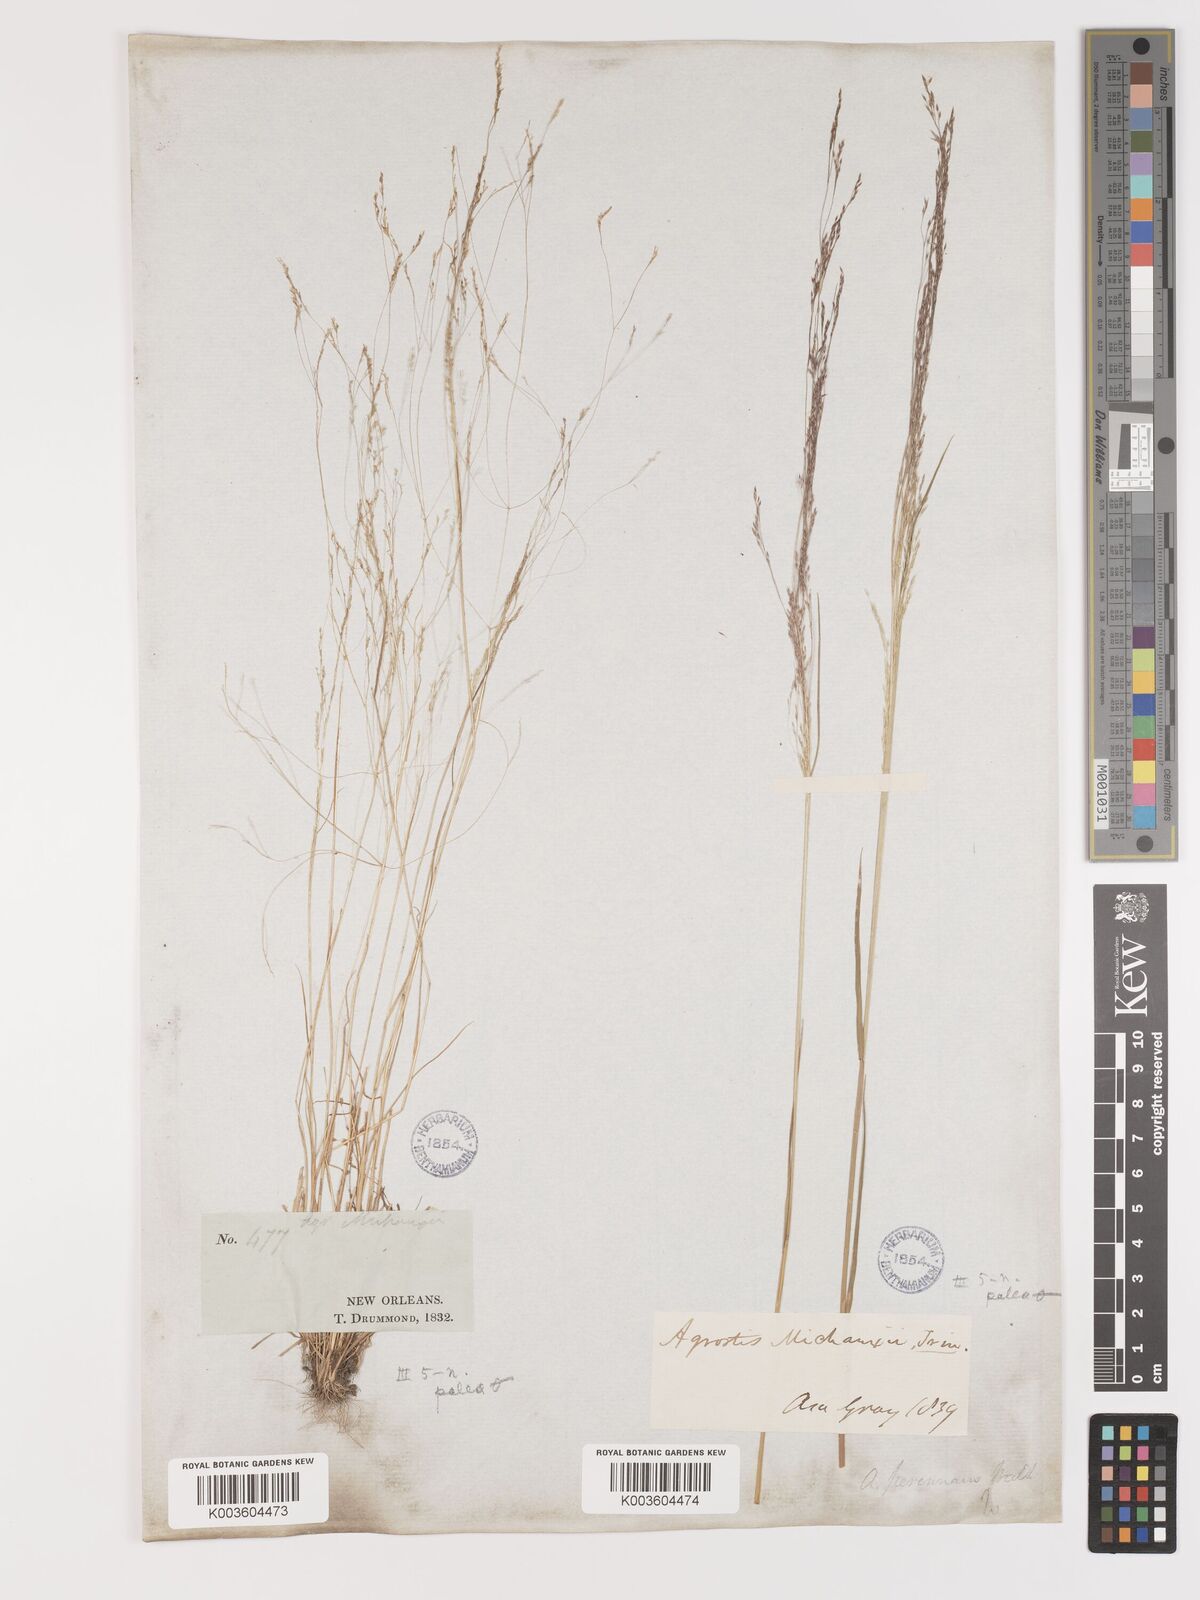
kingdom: Plantae
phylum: Tracheophyta
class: Liliopsida
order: Poales
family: Poaceae
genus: Agrostis
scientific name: Agrostis hyemalis
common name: Small bent
